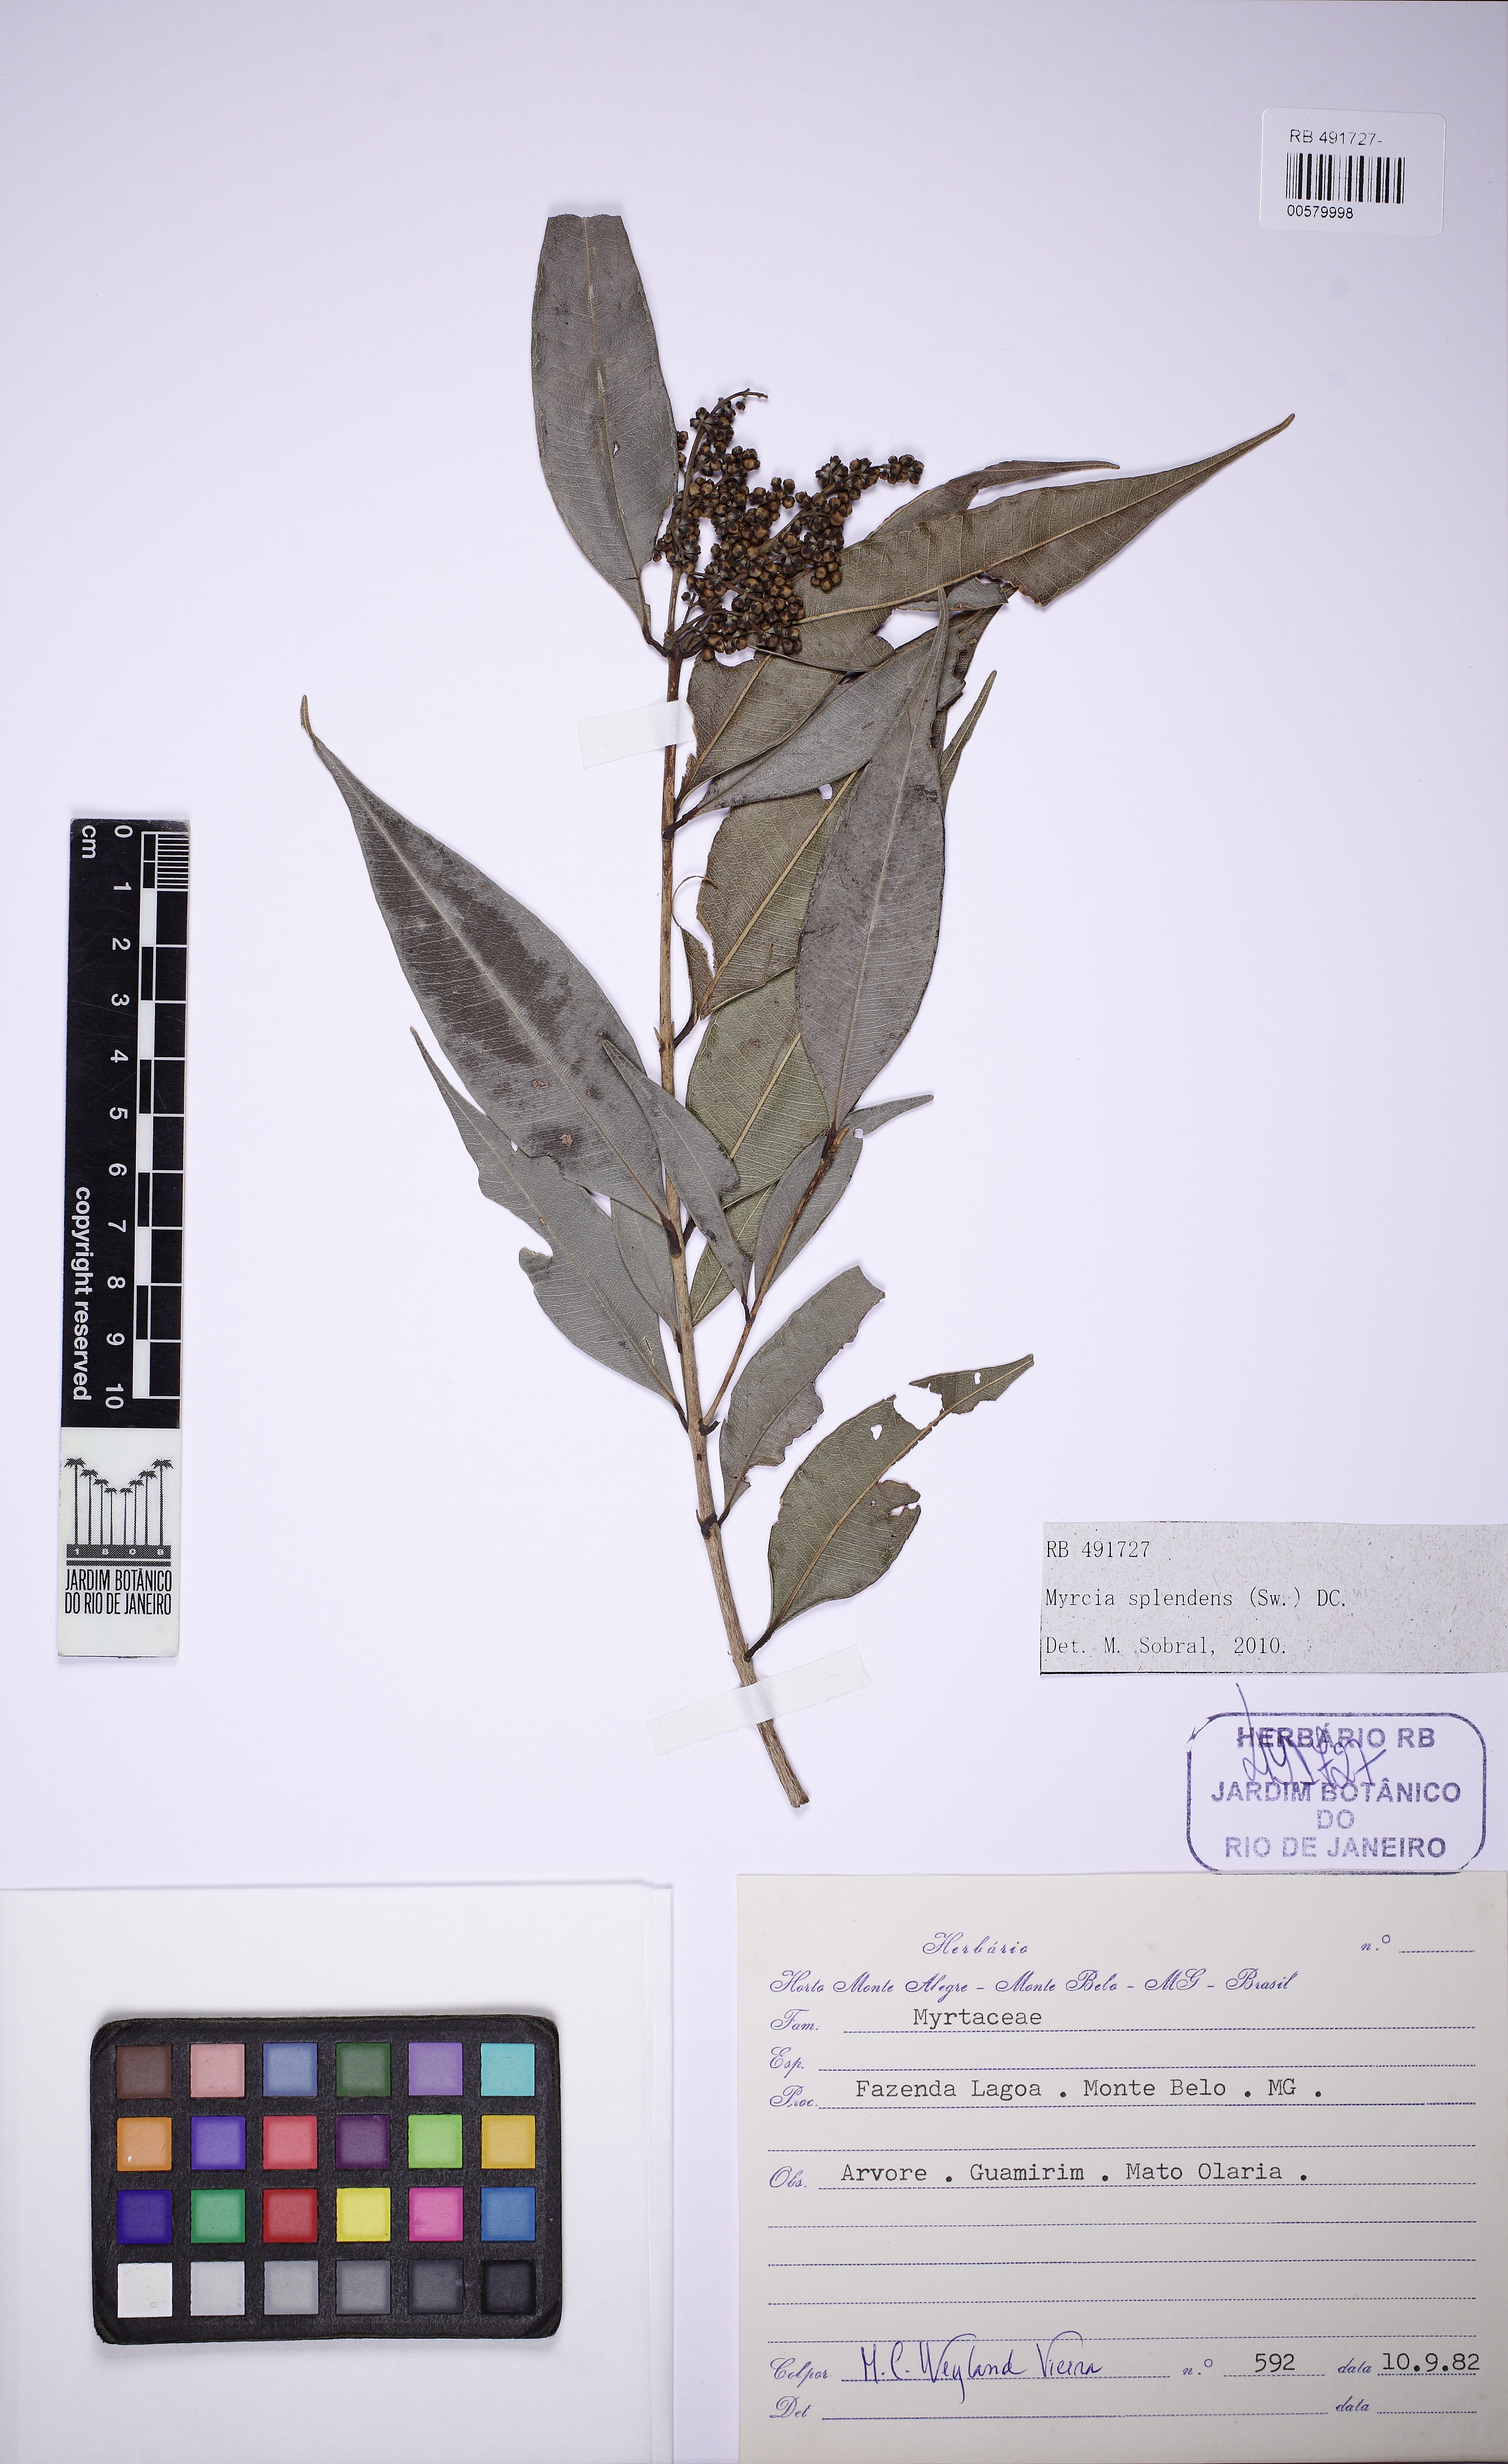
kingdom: Plantae
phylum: Tracheophyta
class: Magnoliopsida
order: Myrtales
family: Myrtaceae
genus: Myrcia
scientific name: Myrcia splendens
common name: Surinam cherry
